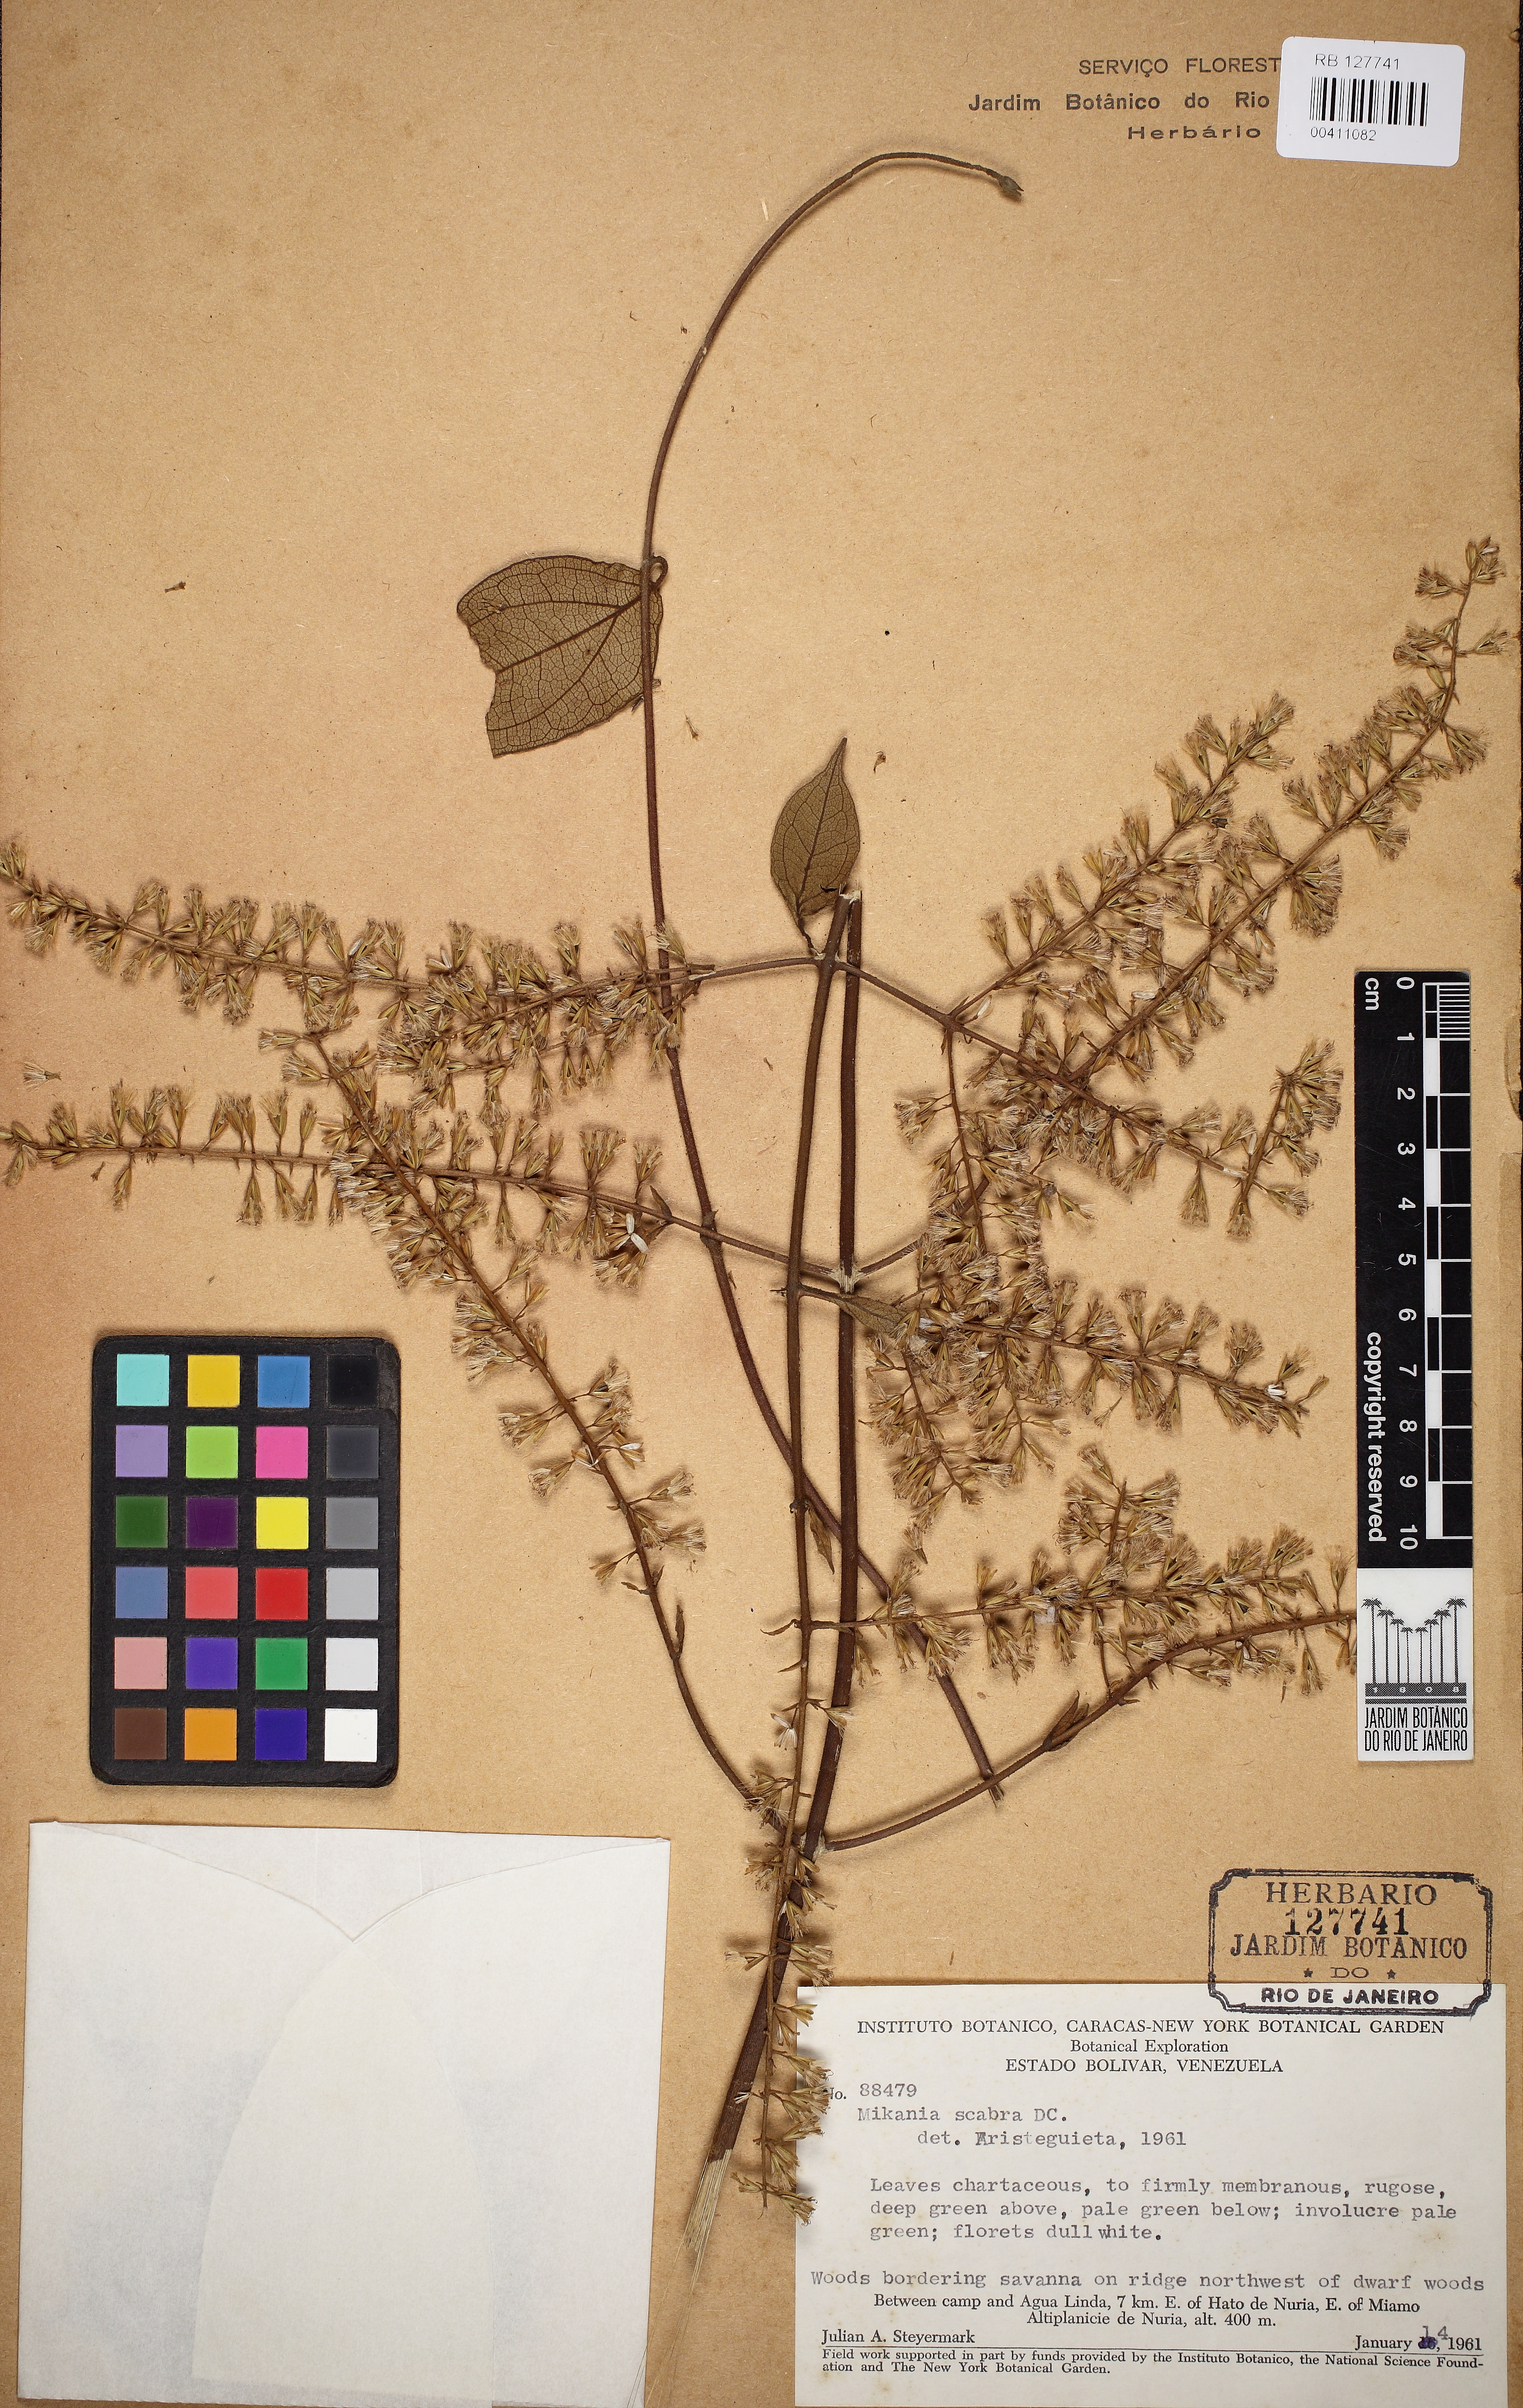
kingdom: Plantae
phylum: Tracheophyta
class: Magnoliopsida
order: Asterales
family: Asteraceae
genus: Mikania
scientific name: Mikania psilostachya
